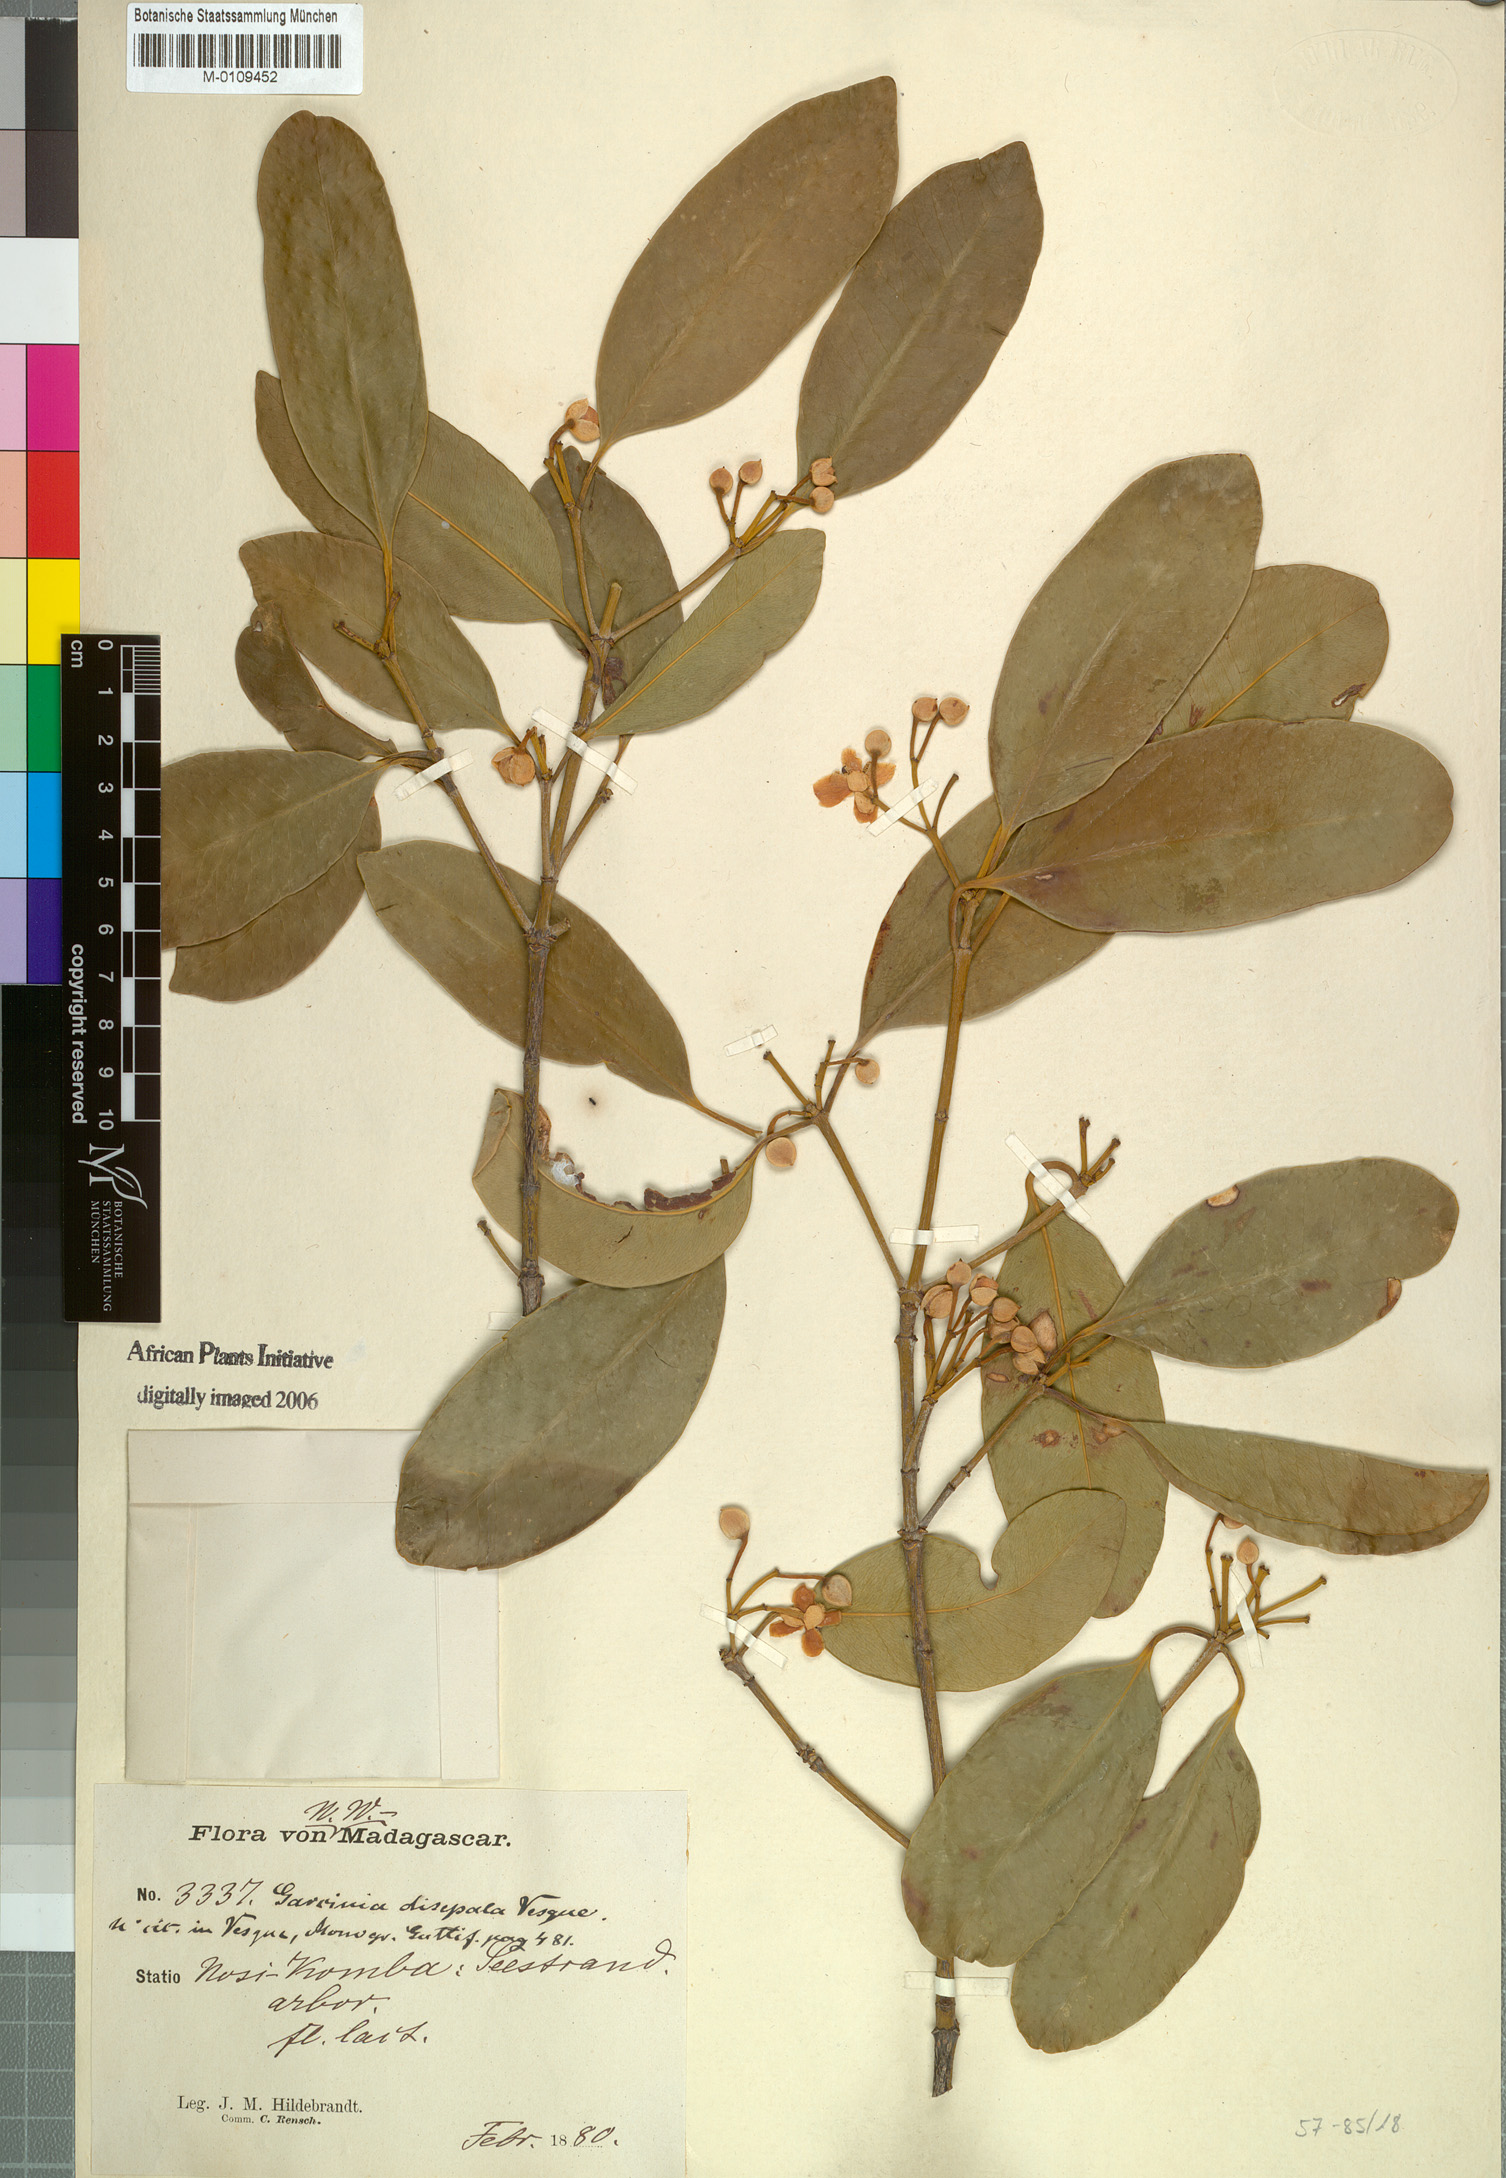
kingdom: Plantae
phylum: Tracheophyta
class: Magnoliopsida
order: Malpighiales
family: Clusiaceae
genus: Garcinia
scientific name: Garcinia evonymoides
